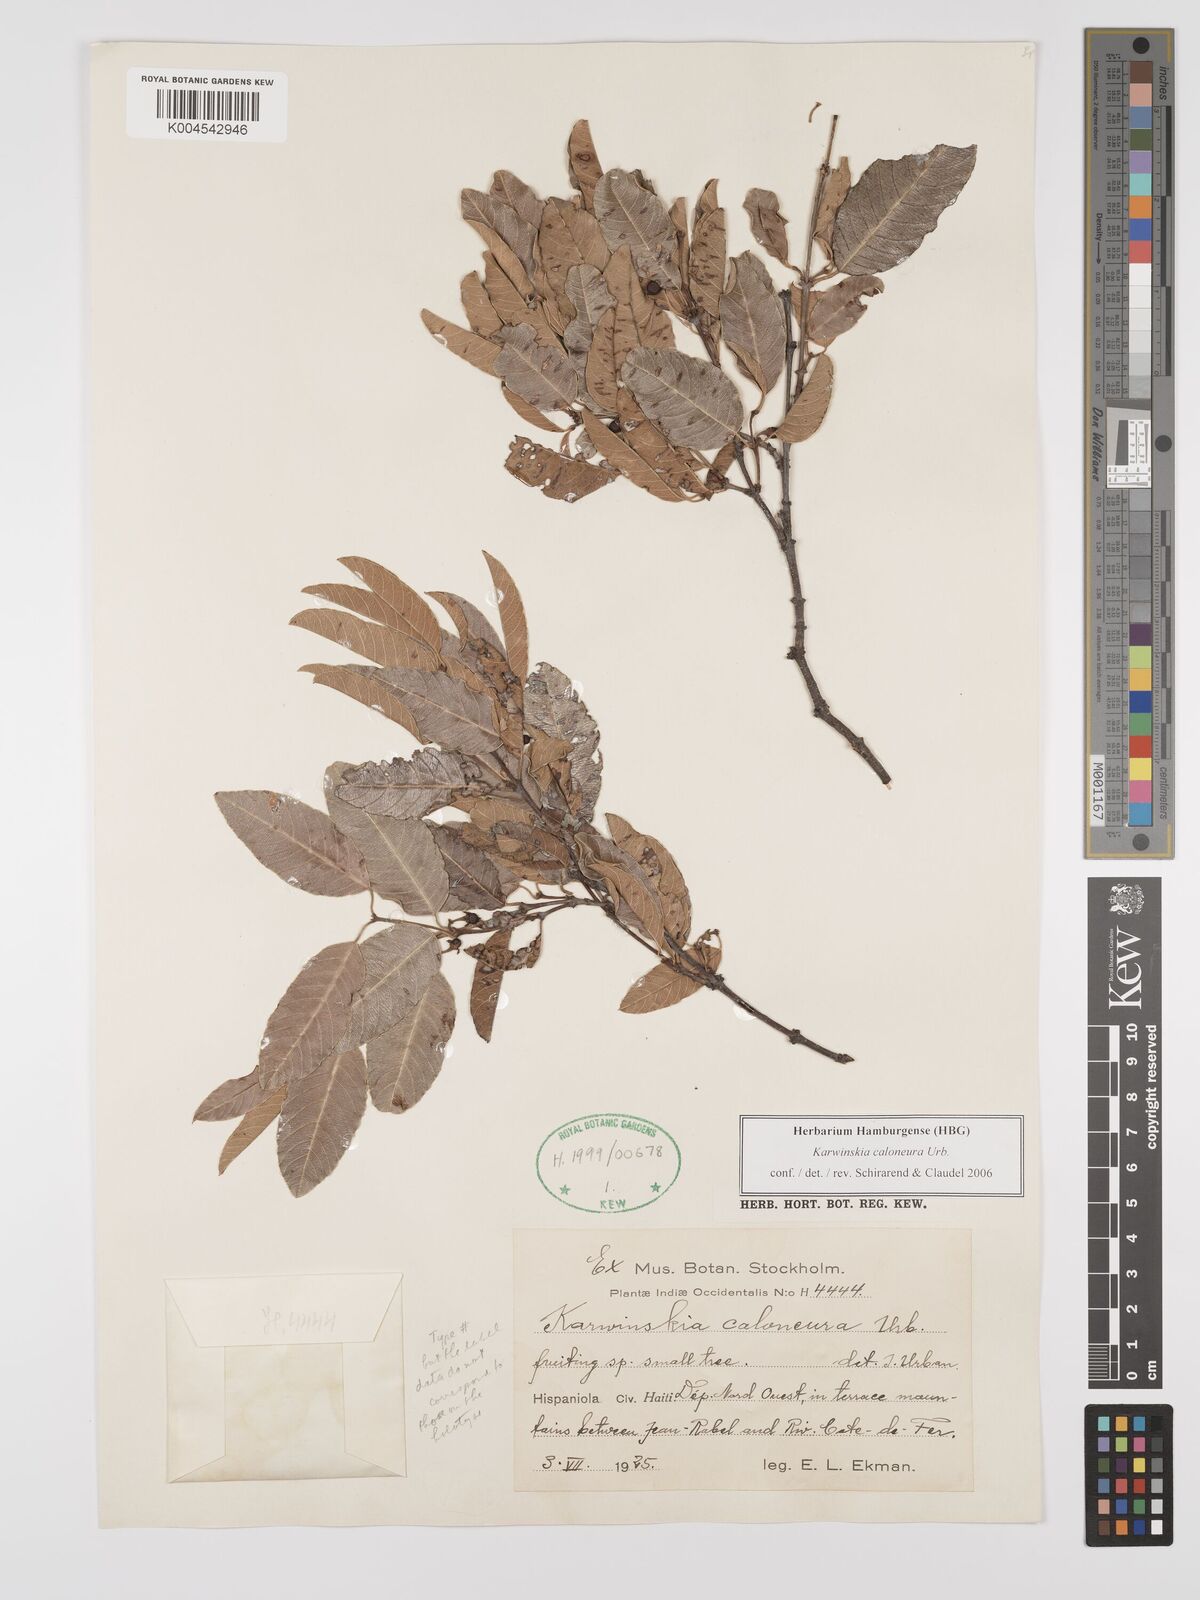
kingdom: Plantae
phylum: Tracheophyta
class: Magnoliopsida
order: Rosales
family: Rhamnaceae
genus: Karwinskia
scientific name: Karwinskia caloneura
